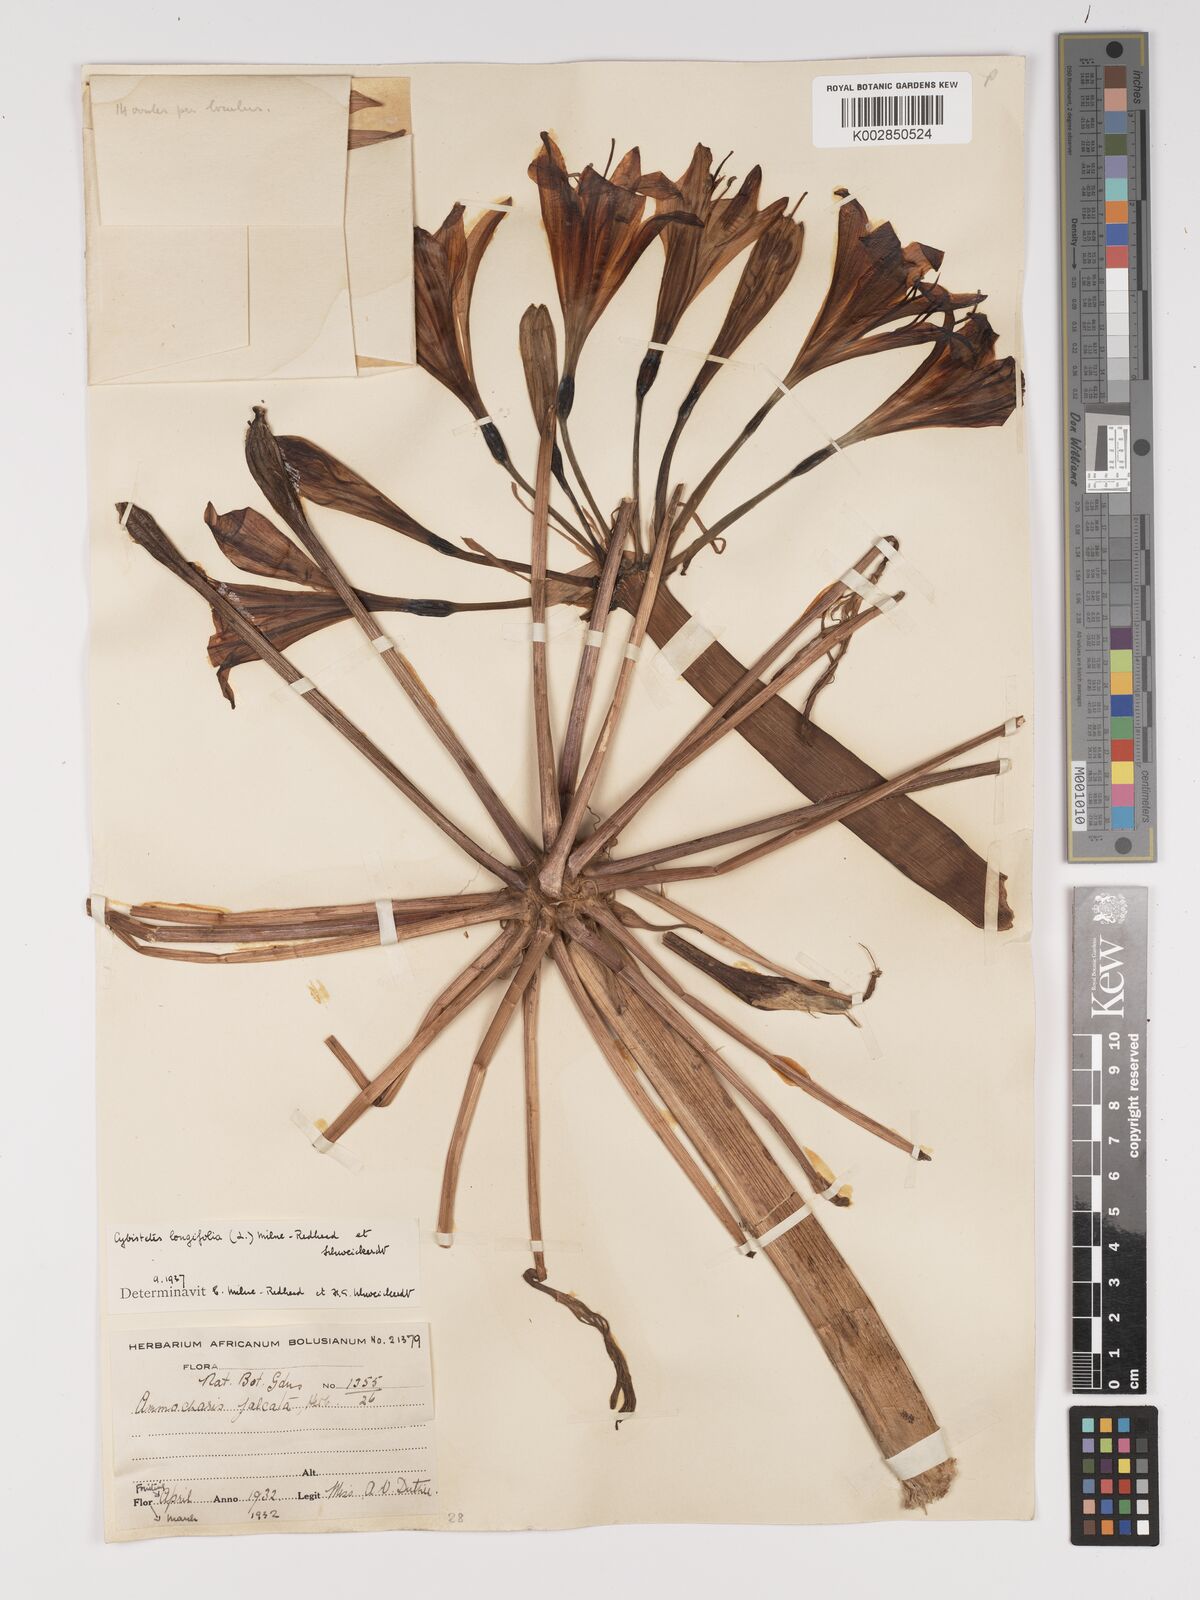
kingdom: Plantae
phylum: Tracheophyta
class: Liliopsida
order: Asparagales
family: Amaryllidaceae
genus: Ammocharis
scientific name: Ammocharis longifolia
